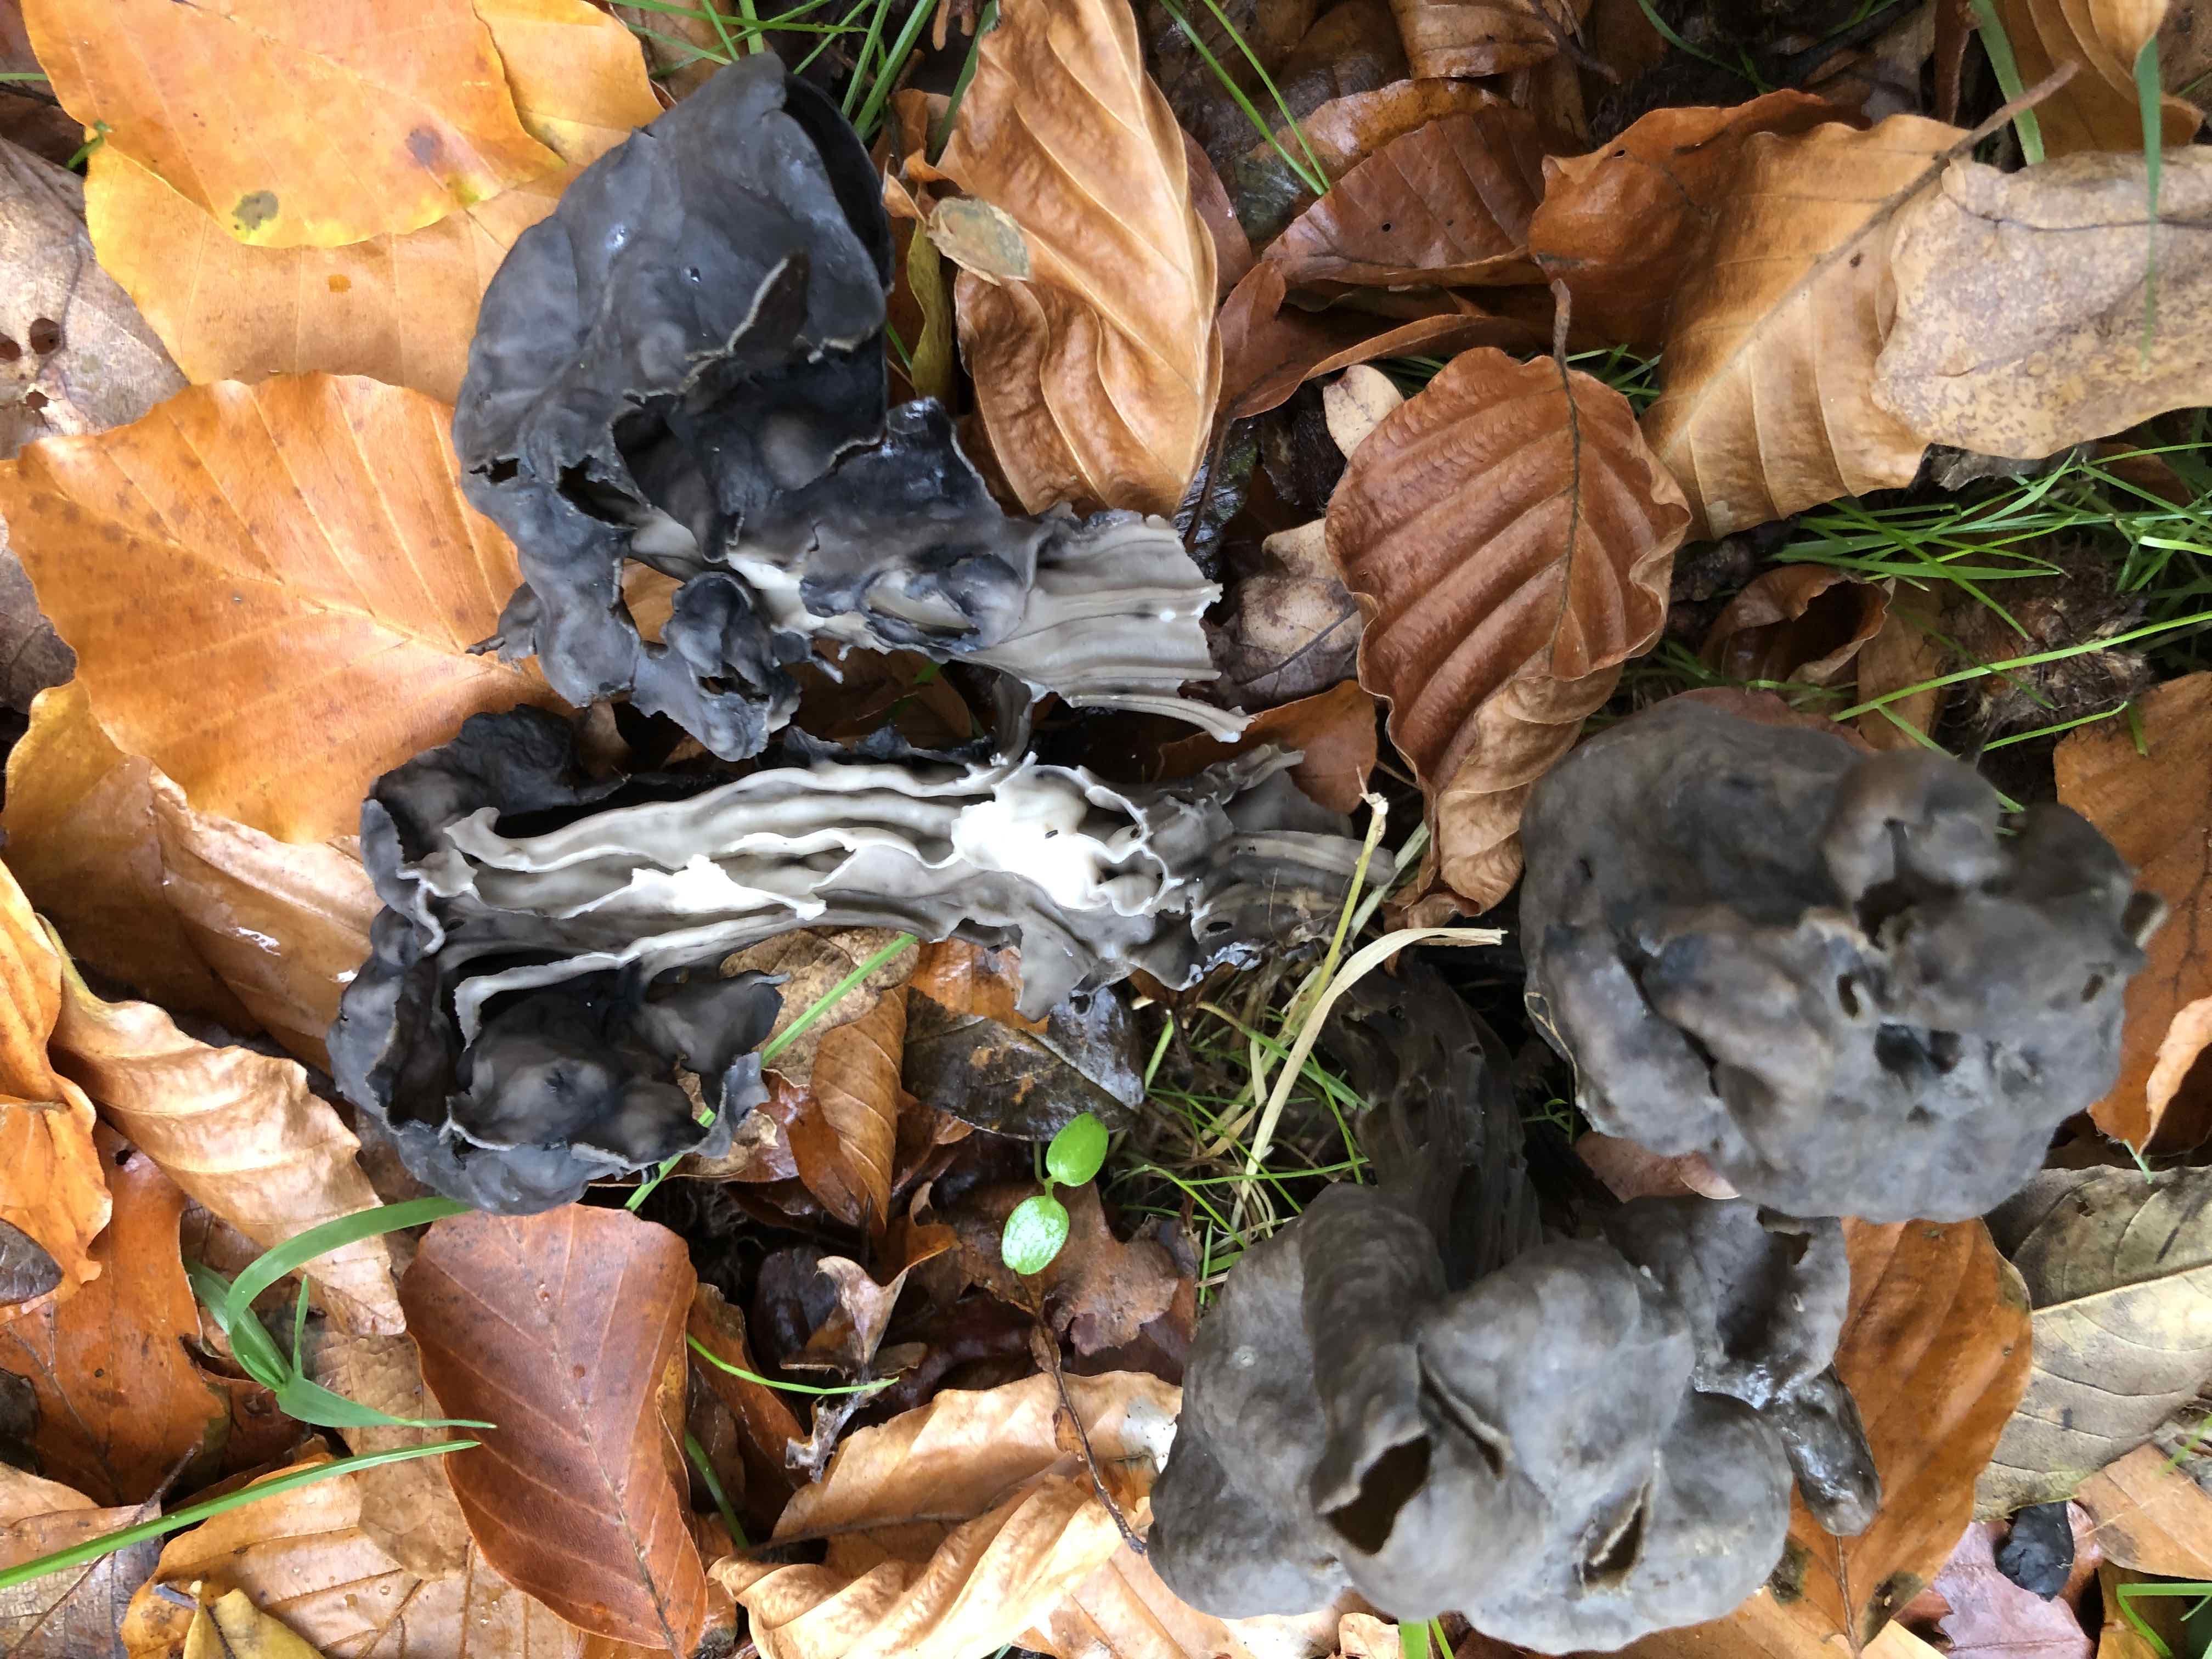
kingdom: Fungi
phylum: Ascomycota
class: Pezizomycetes
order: Pezizales
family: Helvellaceae
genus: Helvella
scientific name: Helvella lacunosa
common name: grubet foldhat
